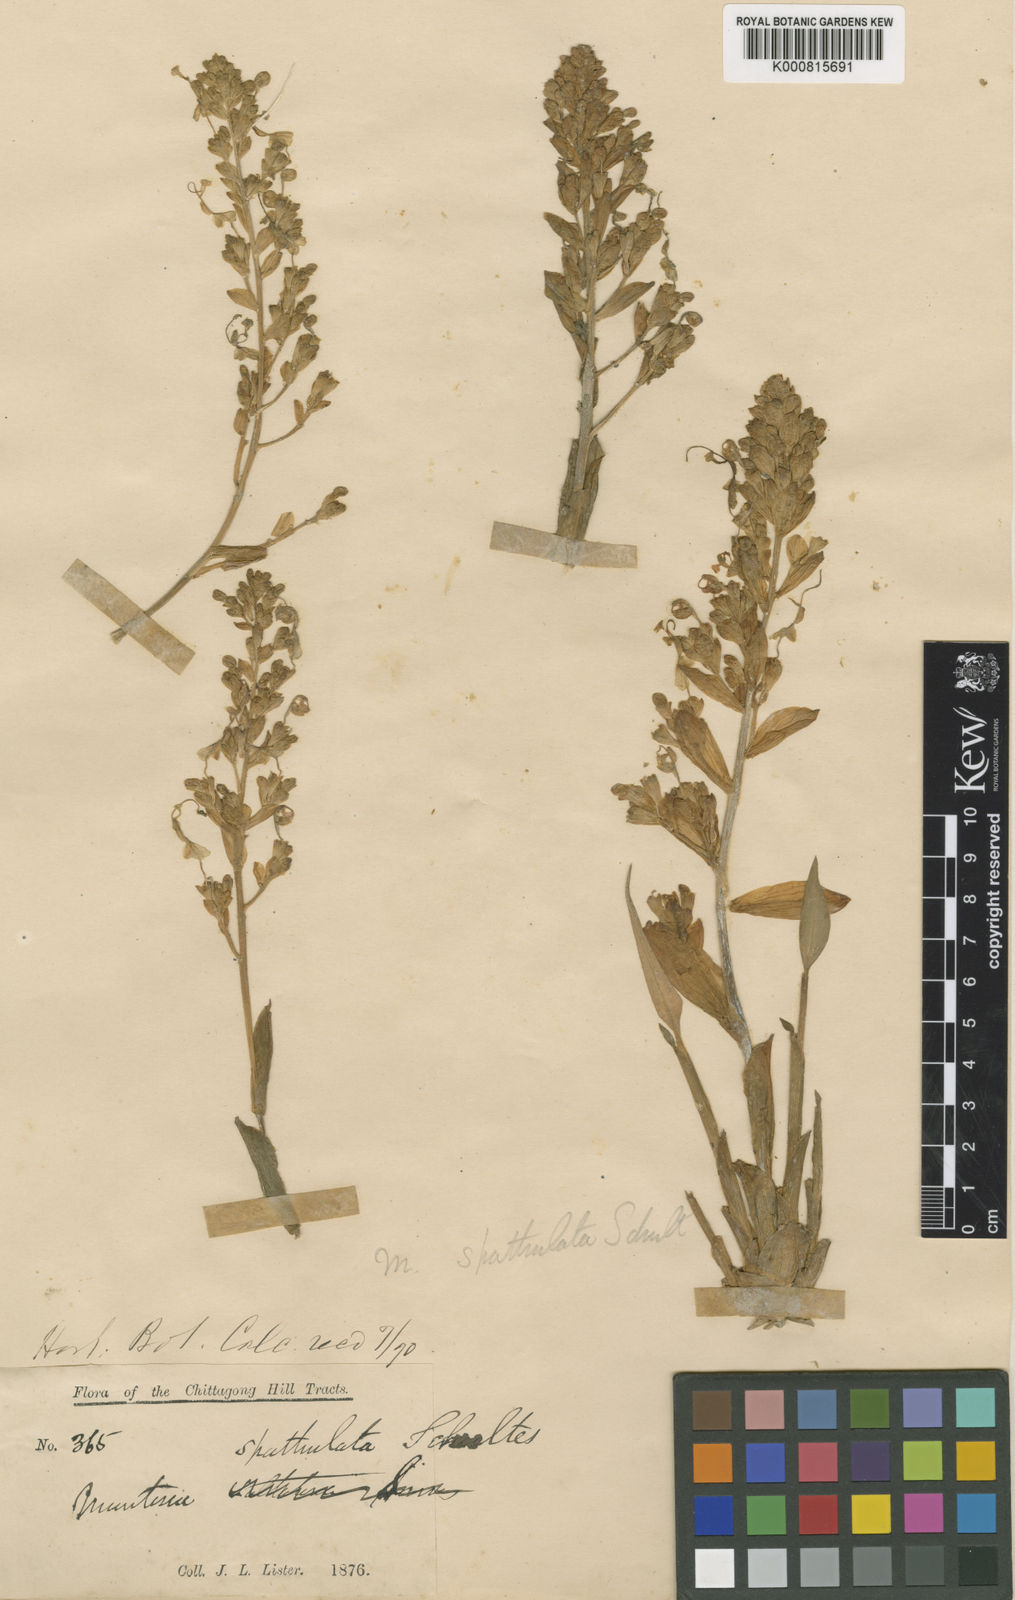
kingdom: Plantae
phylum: Tracheophyta
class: Liliopsida
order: Zingiberales
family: Zingiberaceae
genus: Globba
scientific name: Globba spathulata
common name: Dancing girl flower
